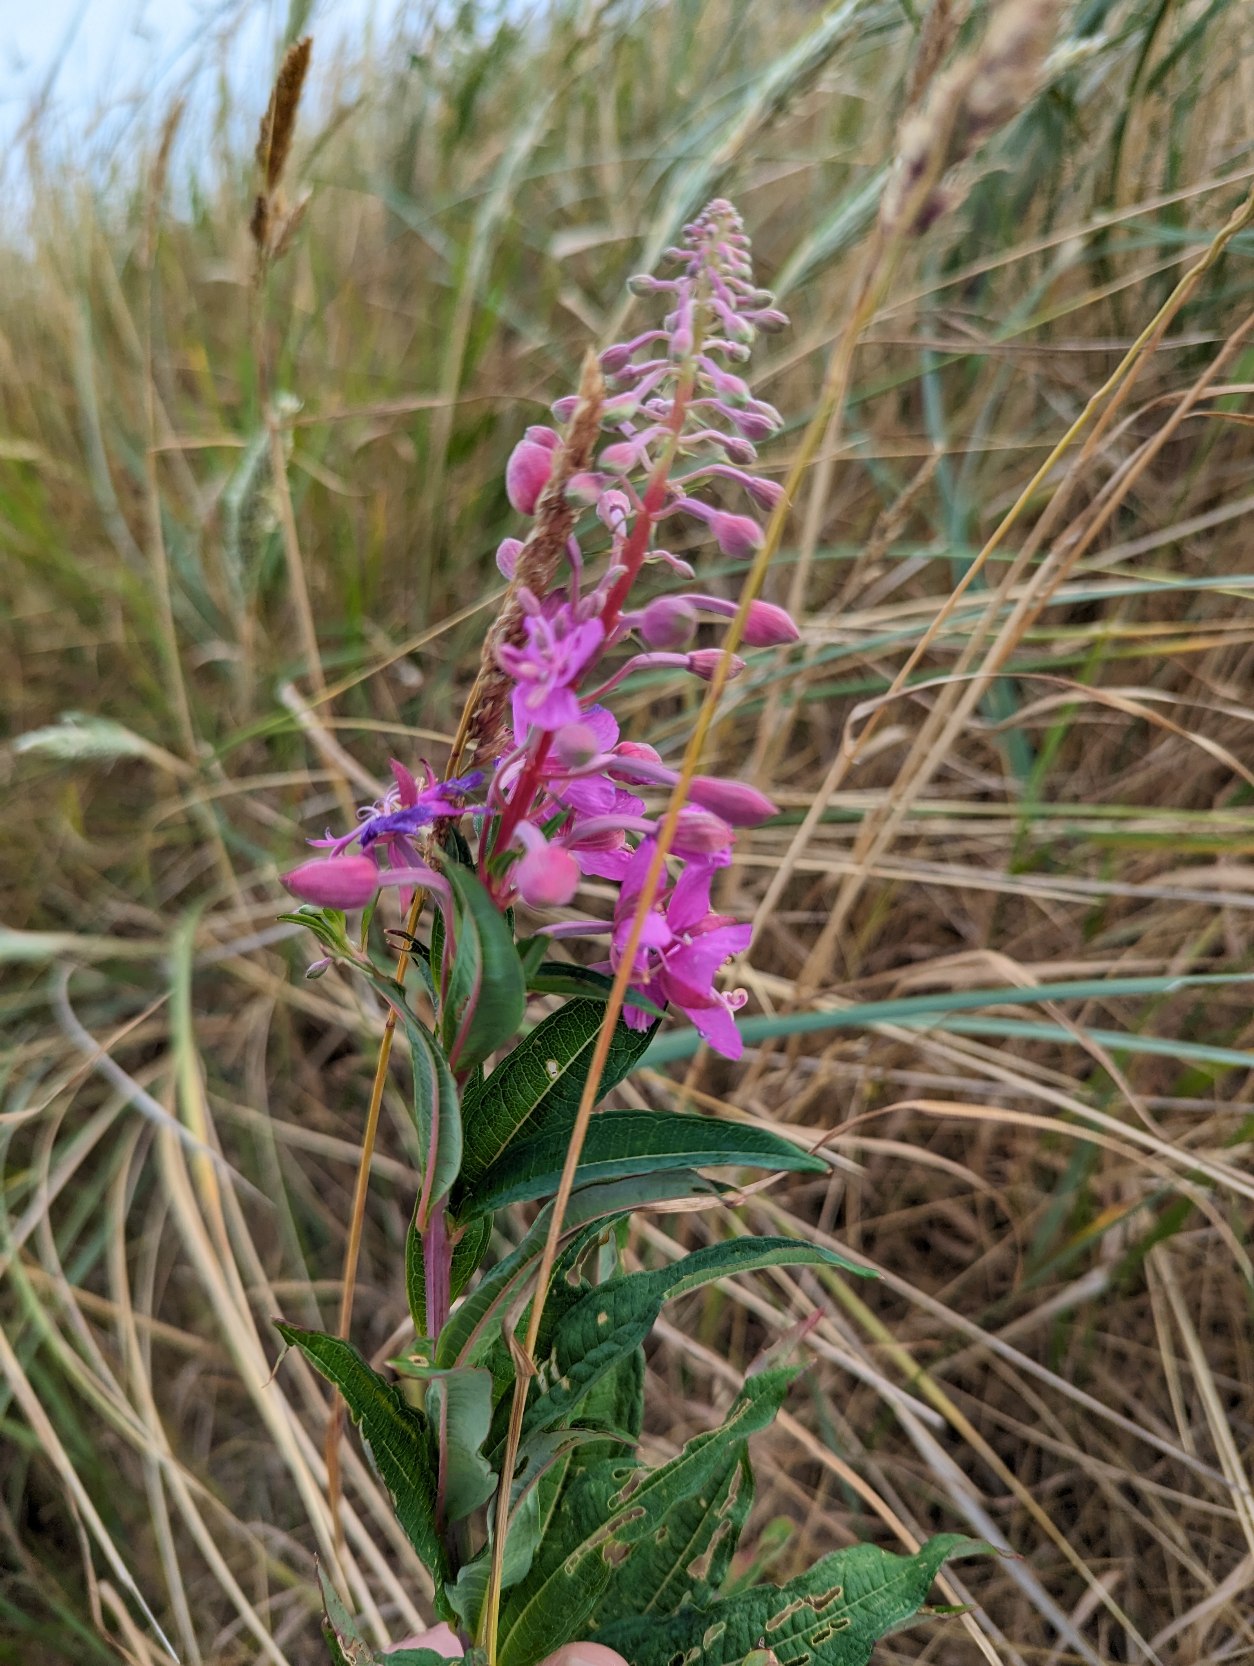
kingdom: Plantae
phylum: Tracheophyta
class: Magnoliopsida
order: Myrtales
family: Onagraceae
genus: Chamaenerion
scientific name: Chamaenerion angustifolium
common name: Gederams
